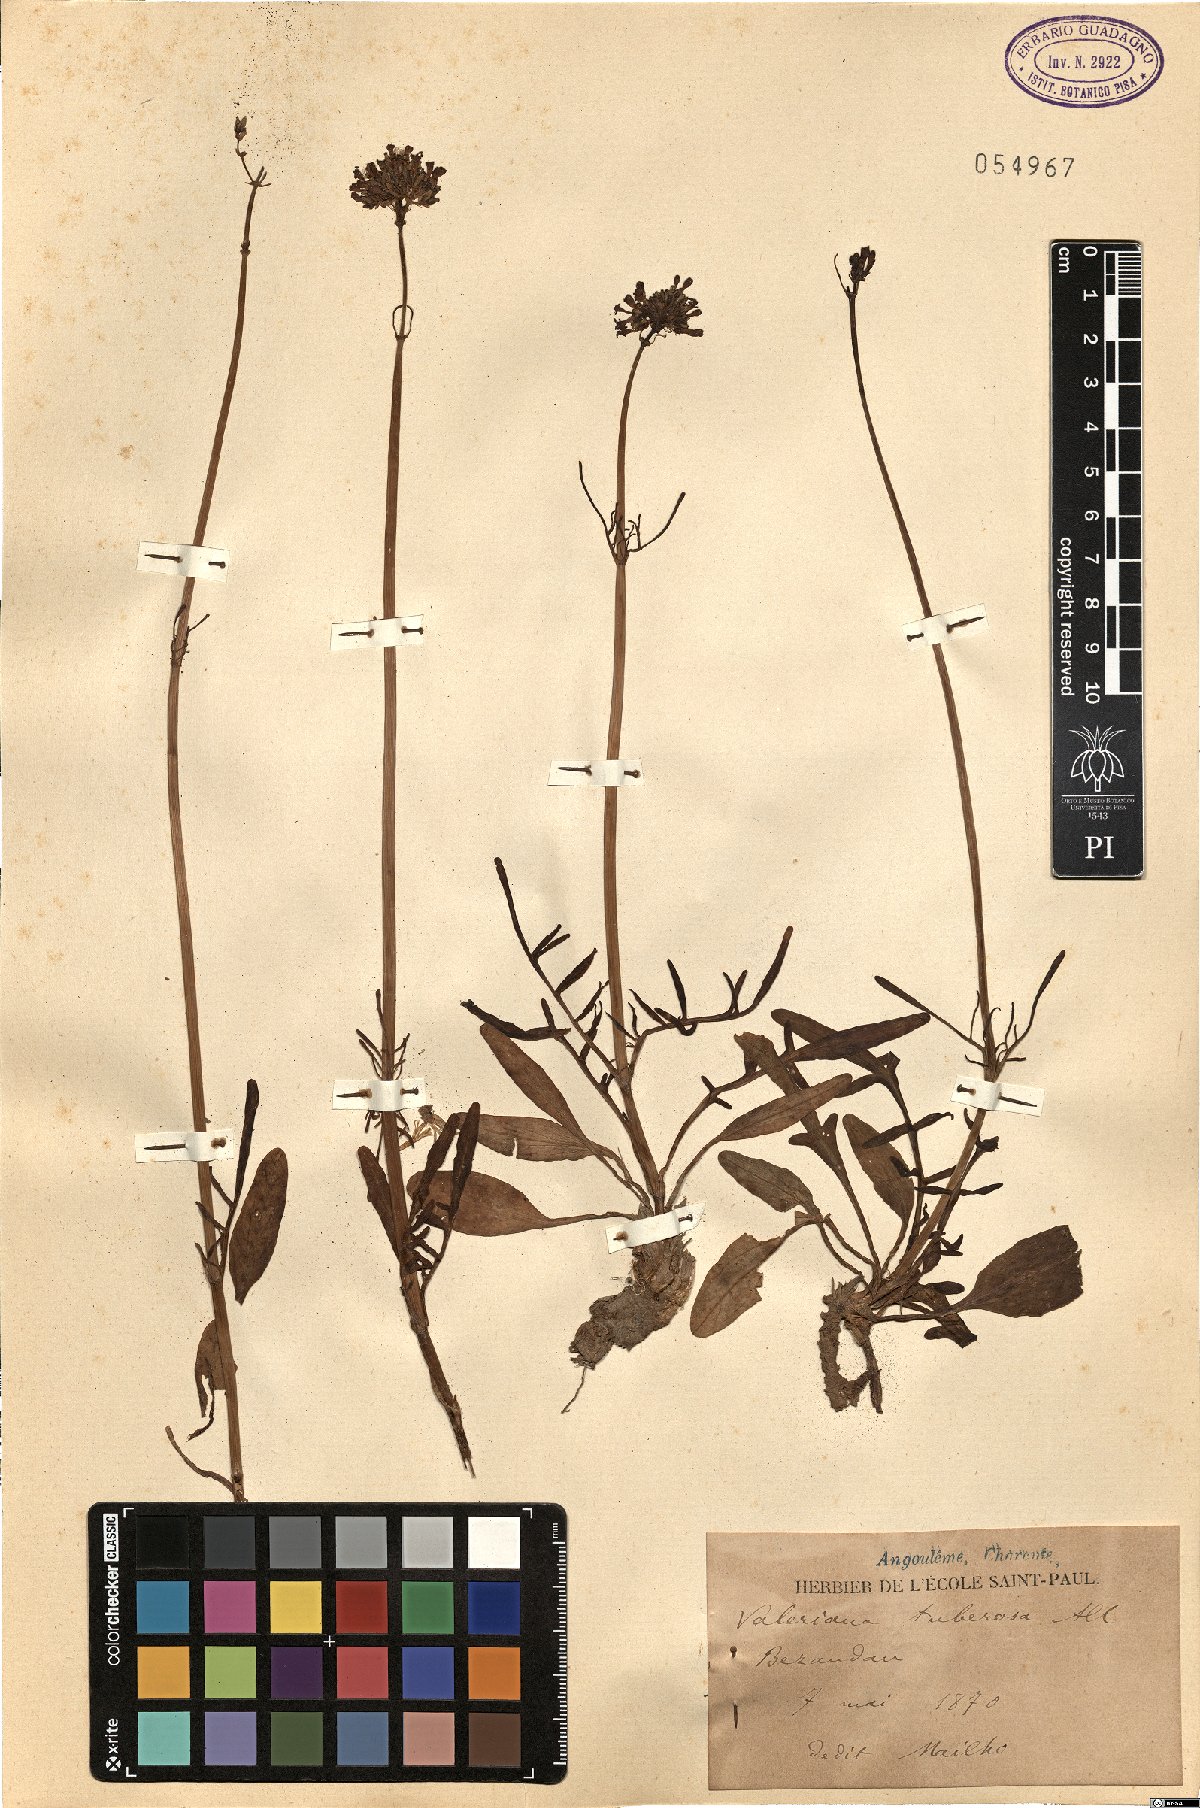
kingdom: Plantae
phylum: Tracheophyta
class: Magnoliopsida
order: Dipsacales
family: Caprifoliaceae
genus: Valeriana
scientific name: Valeriana tuberosa
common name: Tuberous valerian
